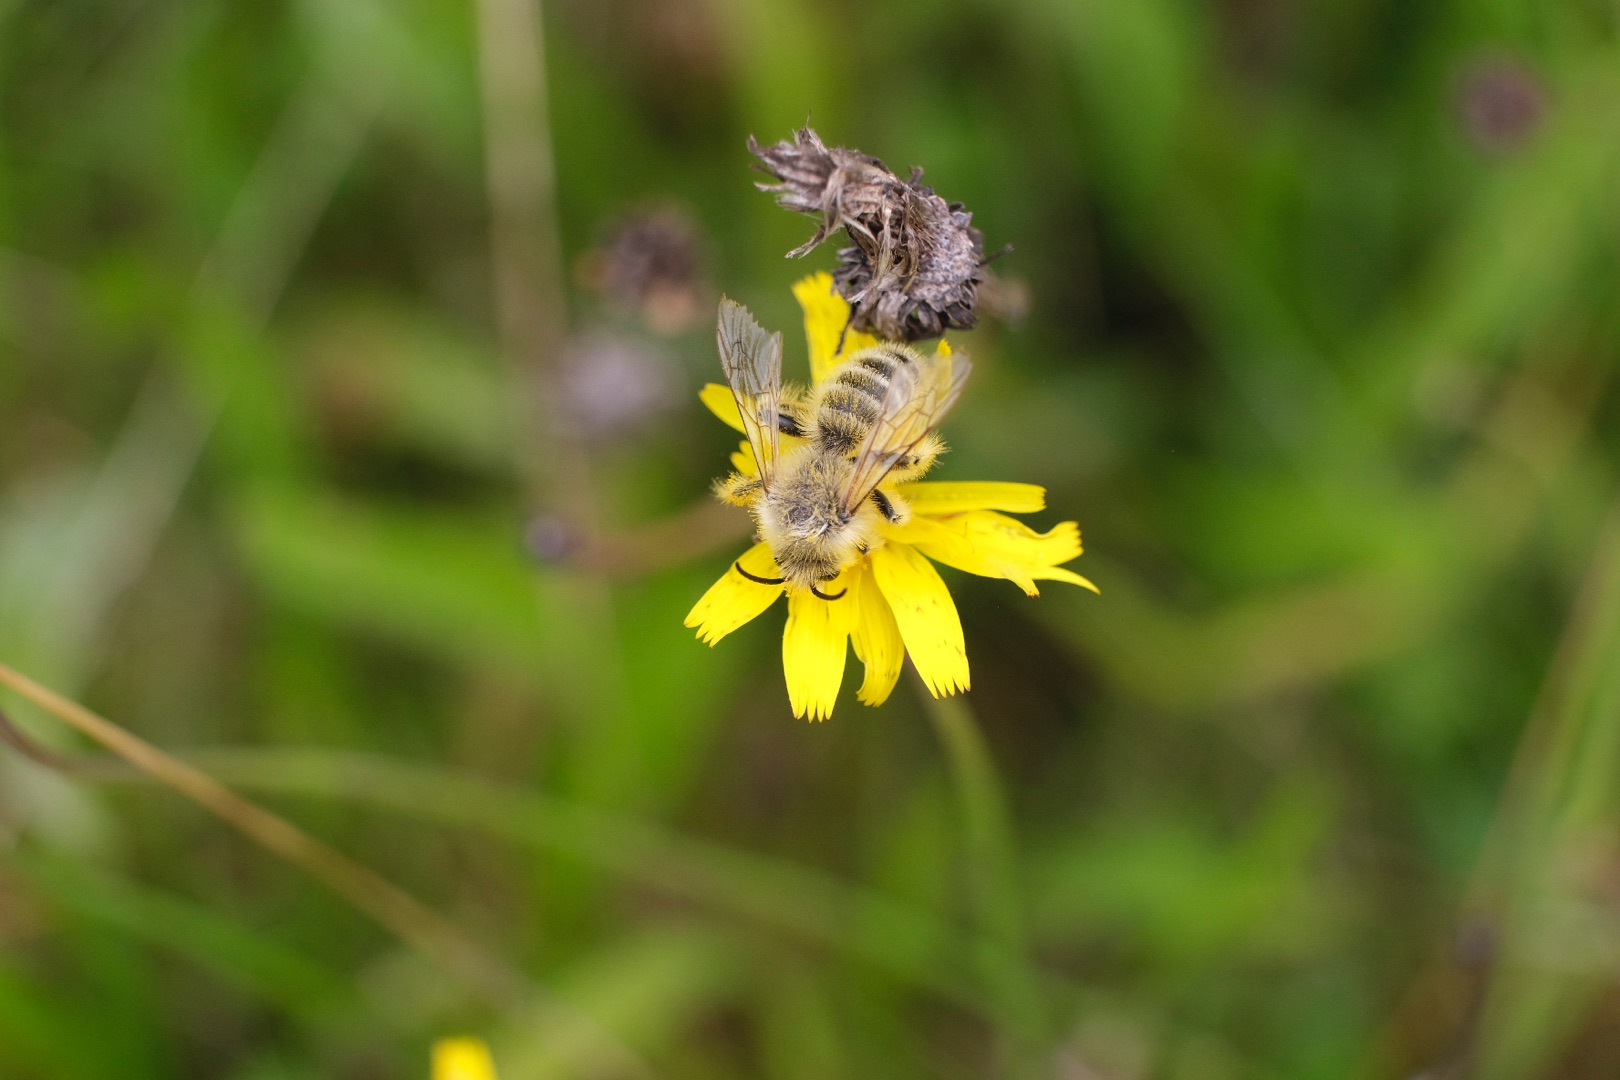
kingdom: Animalia
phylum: Arthropoda
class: Insecta
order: Hymenoptera
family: Melittidae
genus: Dasypoda
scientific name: Dasypoda hirtipes
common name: Pragtbuksebi
